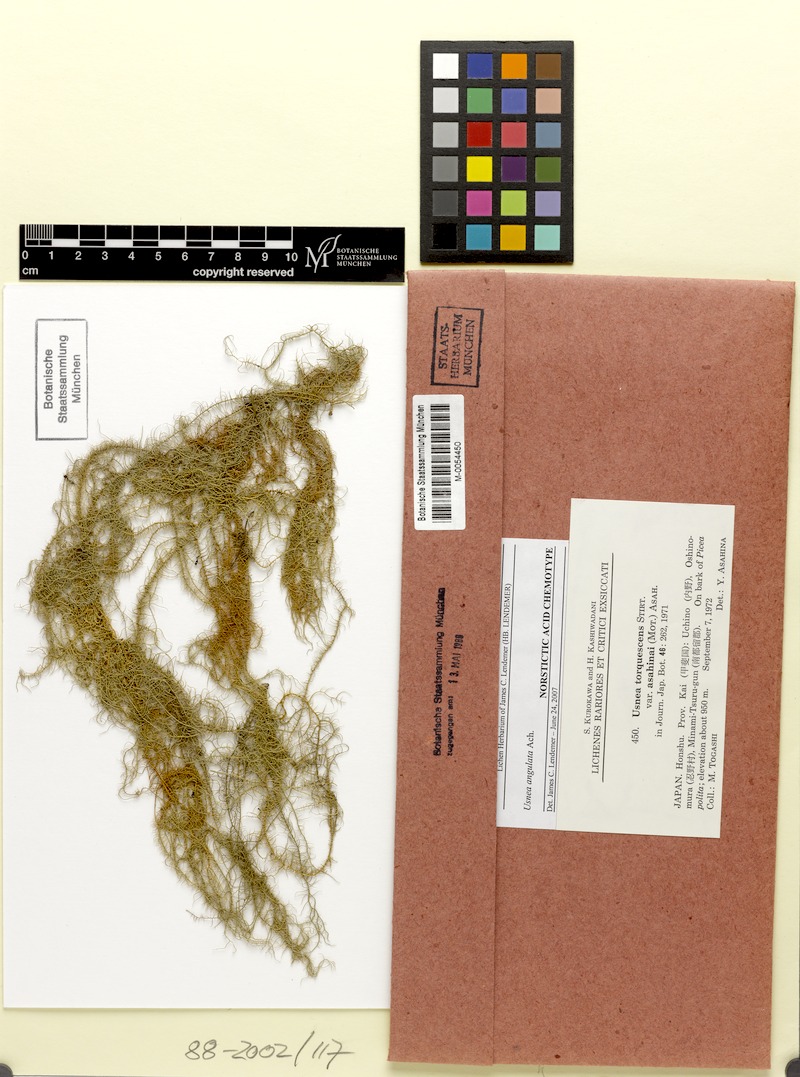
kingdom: Fungi
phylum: Ascomycota
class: Lecanoromycetes
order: Lecanorales
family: Parmeliaceae
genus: Usnea
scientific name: Usnea angulata
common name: Old-man’s beard lichen
